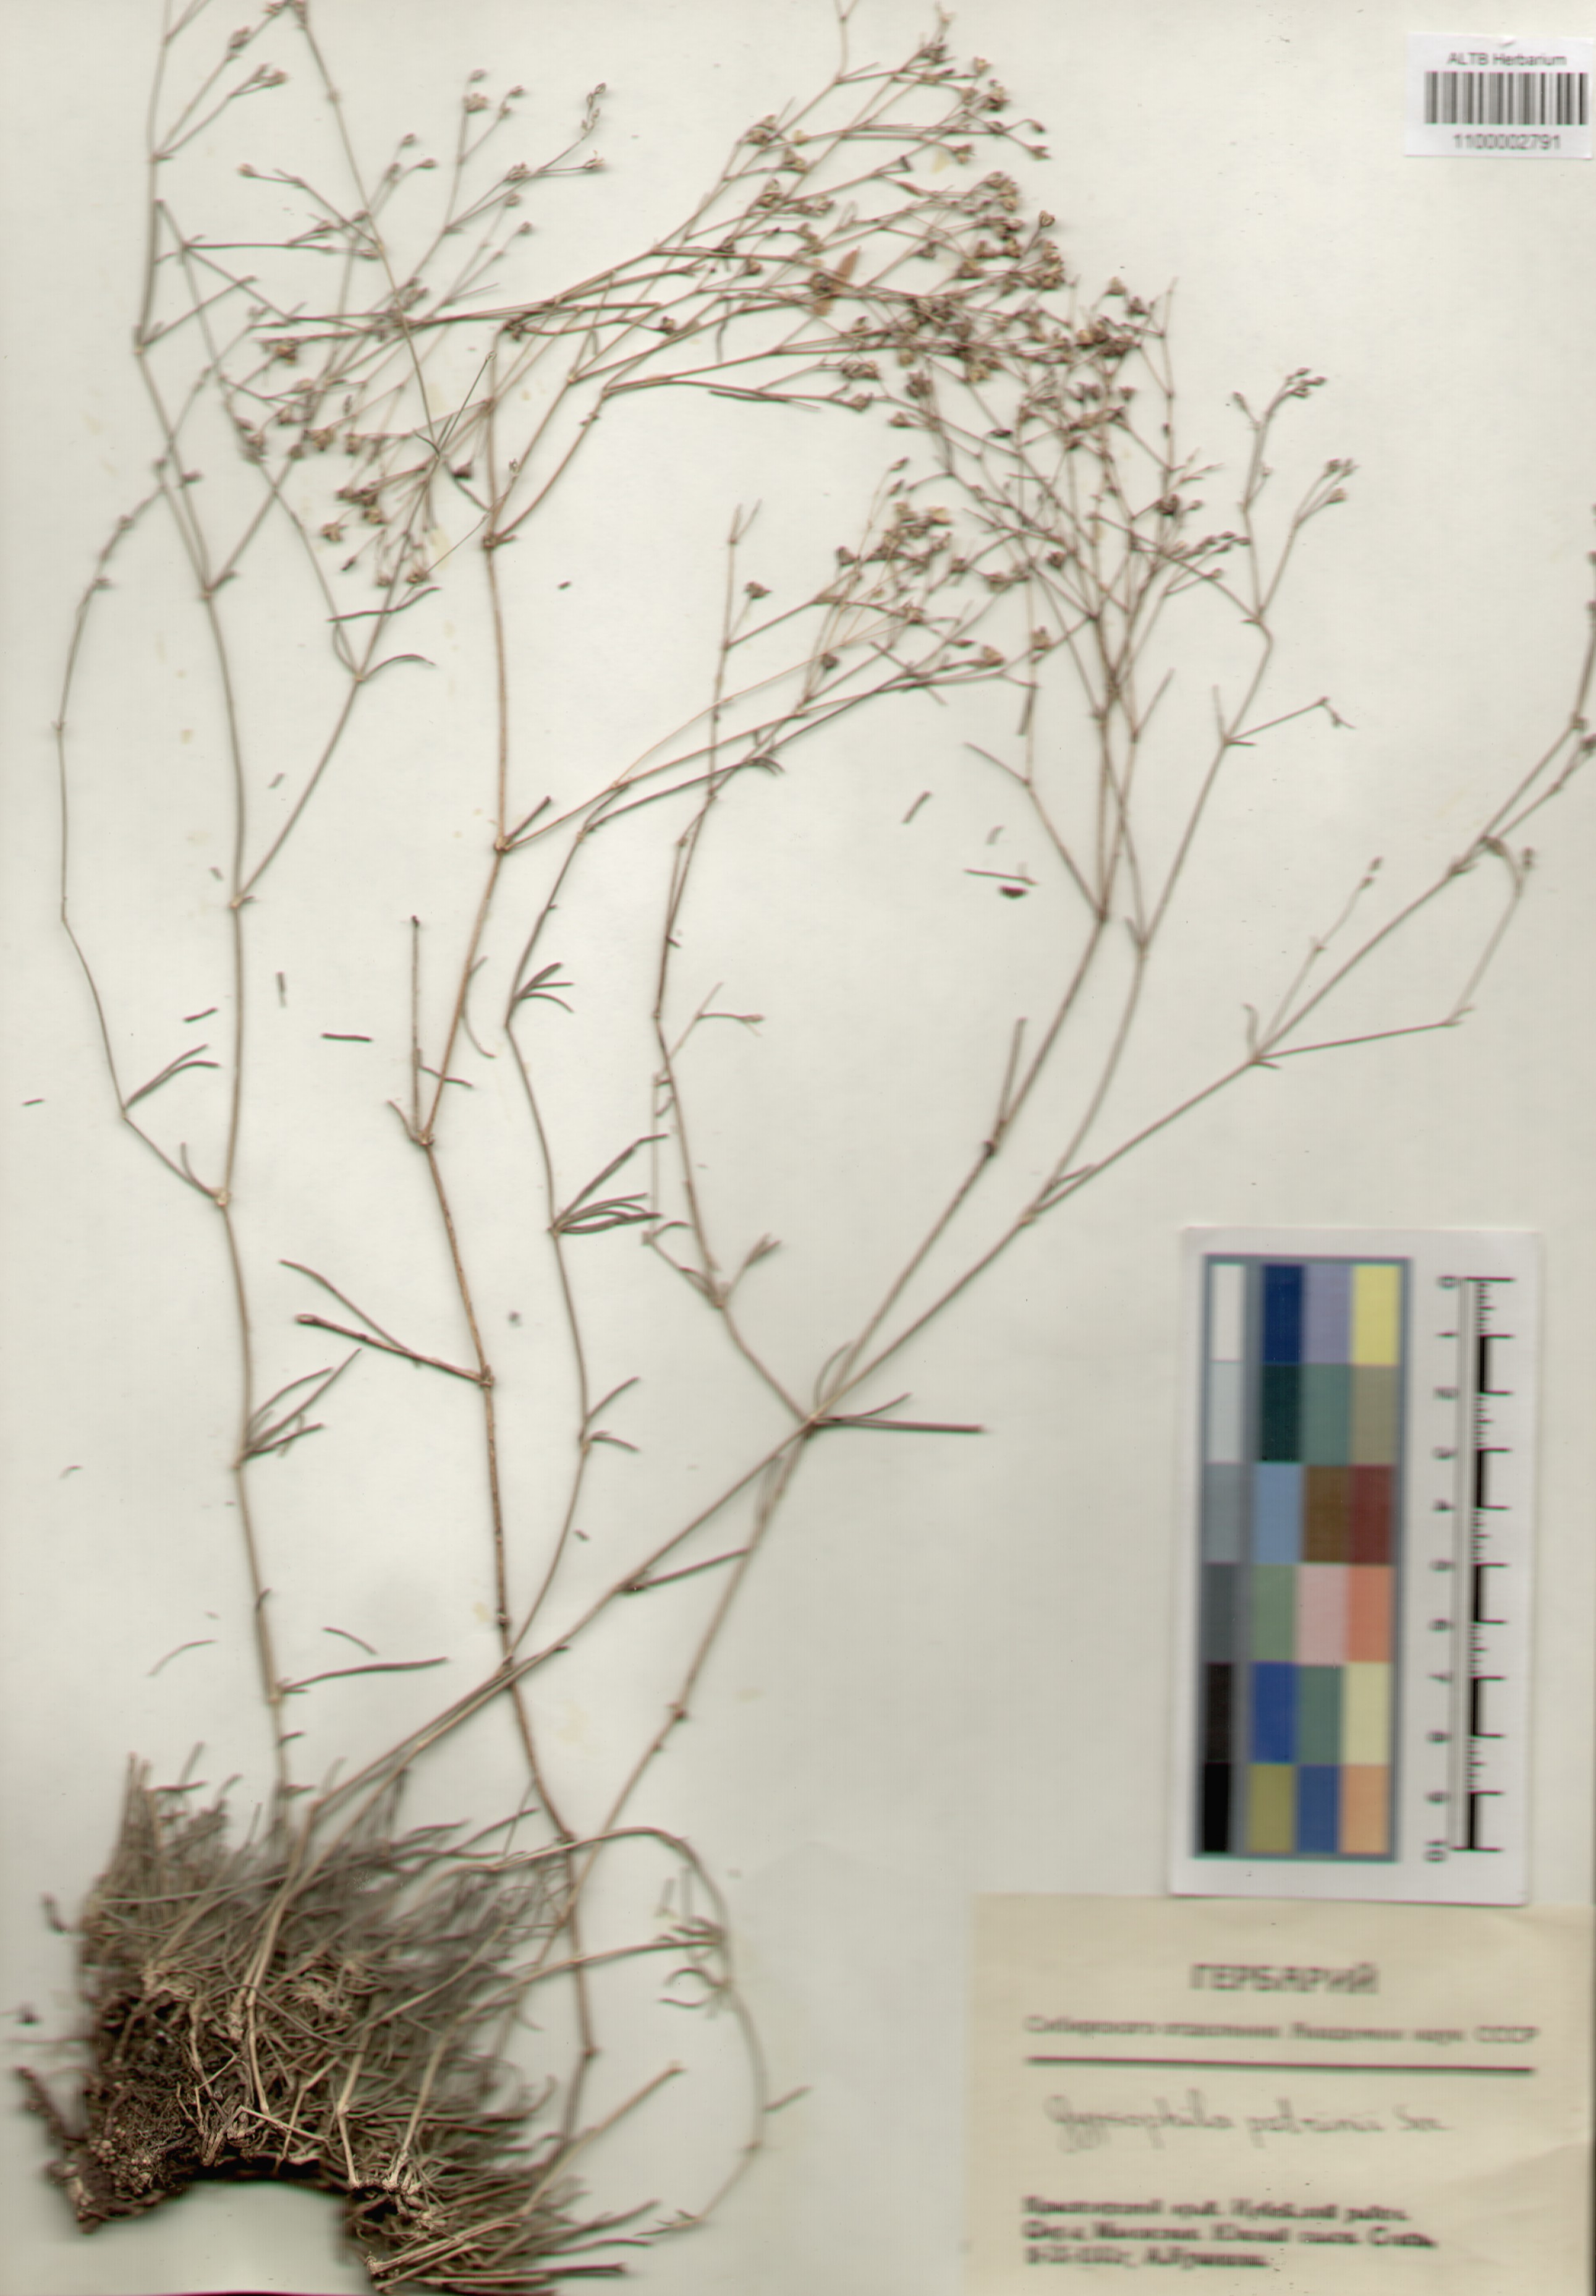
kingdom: Plantae
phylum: Tracheophyta
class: Magnoliopsida
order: Caryophyllales
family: Caryophyllaceae
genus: Gypsophila
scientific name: Gypsophila patrinii
